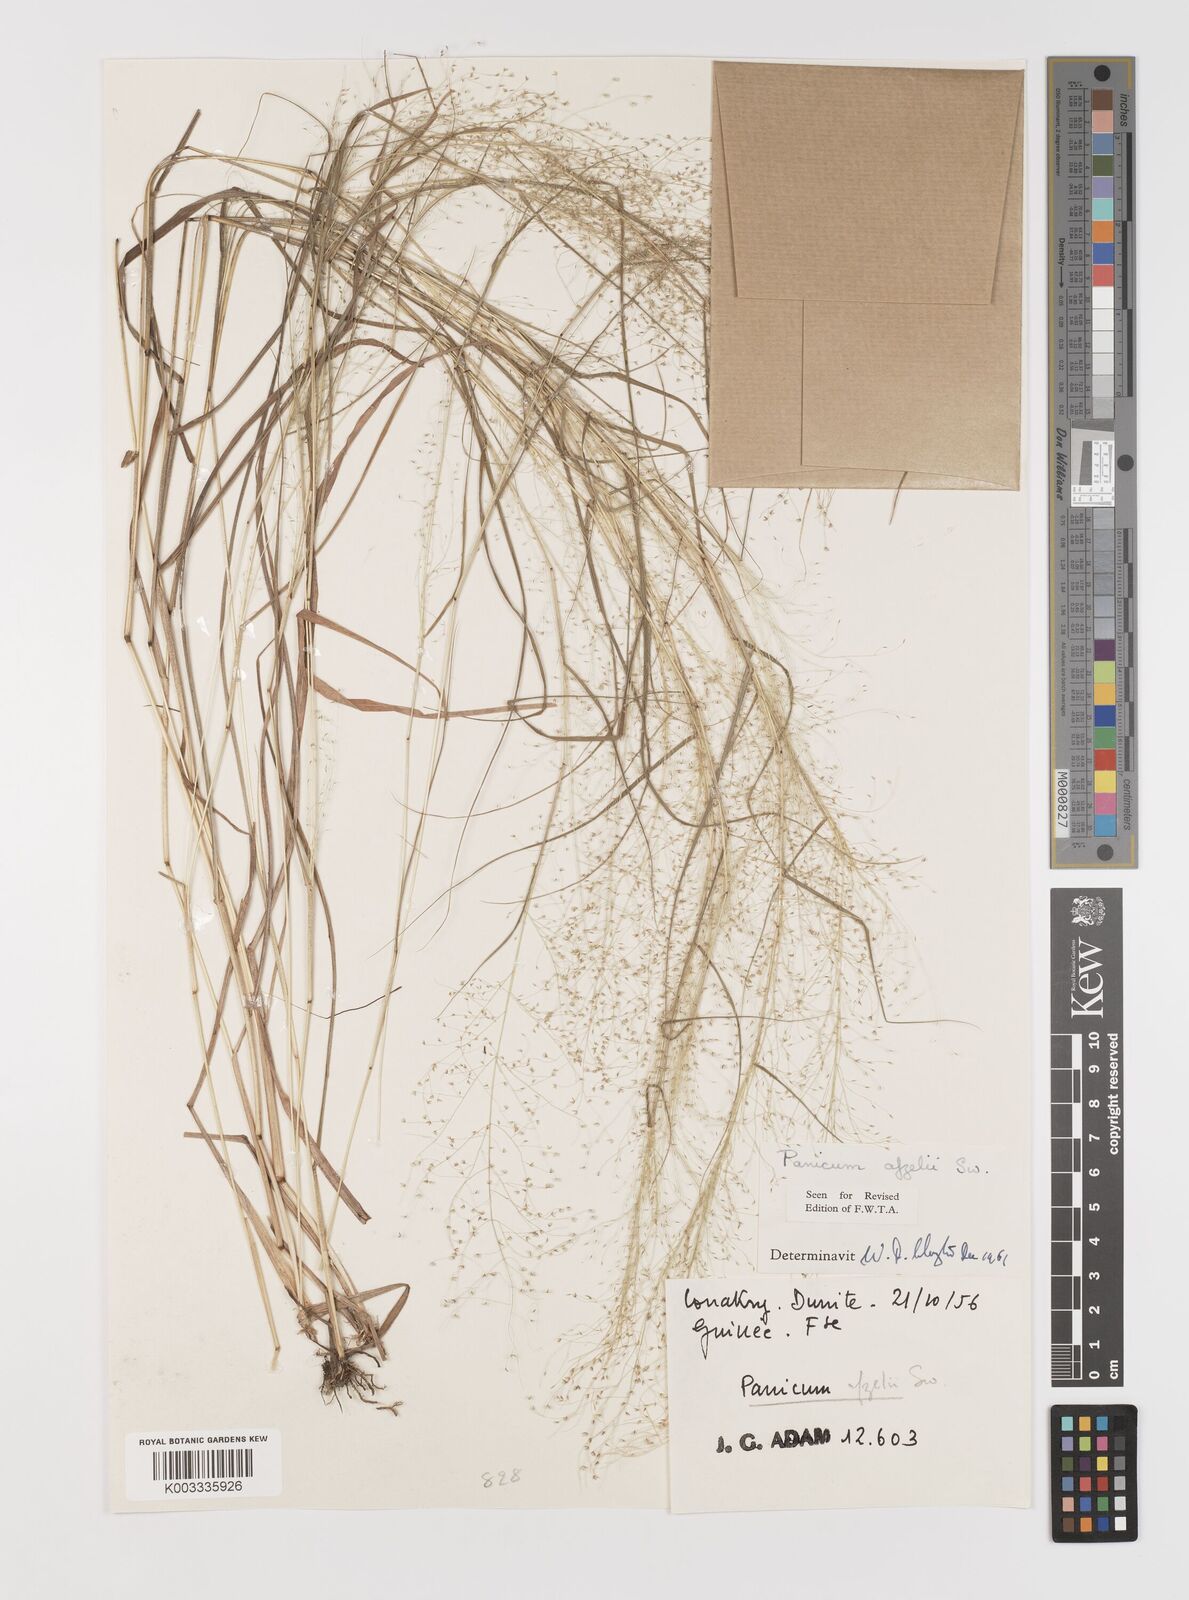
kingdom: Plantae
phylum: Tracheophyta
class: Liliopsida
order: Poales
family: Poaceae
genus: Panicum
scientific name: Panicum afzelii
